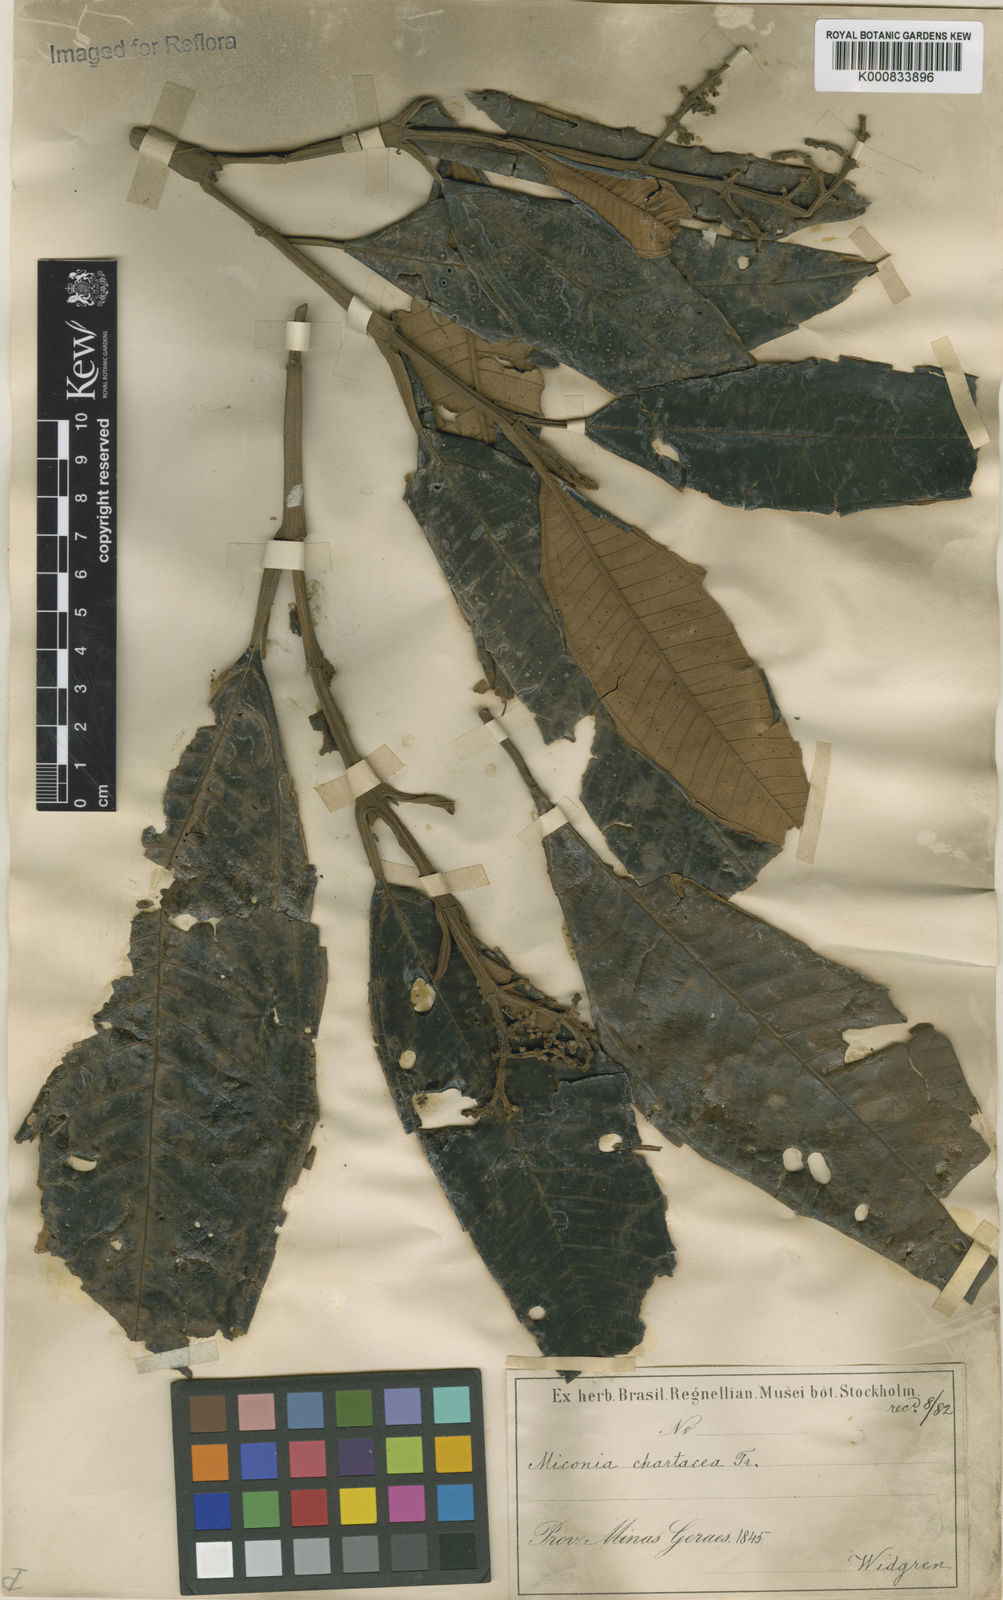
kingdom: Plantae
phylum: Tracheophyta
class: Magnoliopsida
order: Myrtales
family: Melastomataceae
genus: Miconia
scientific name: Miconia chartacea
